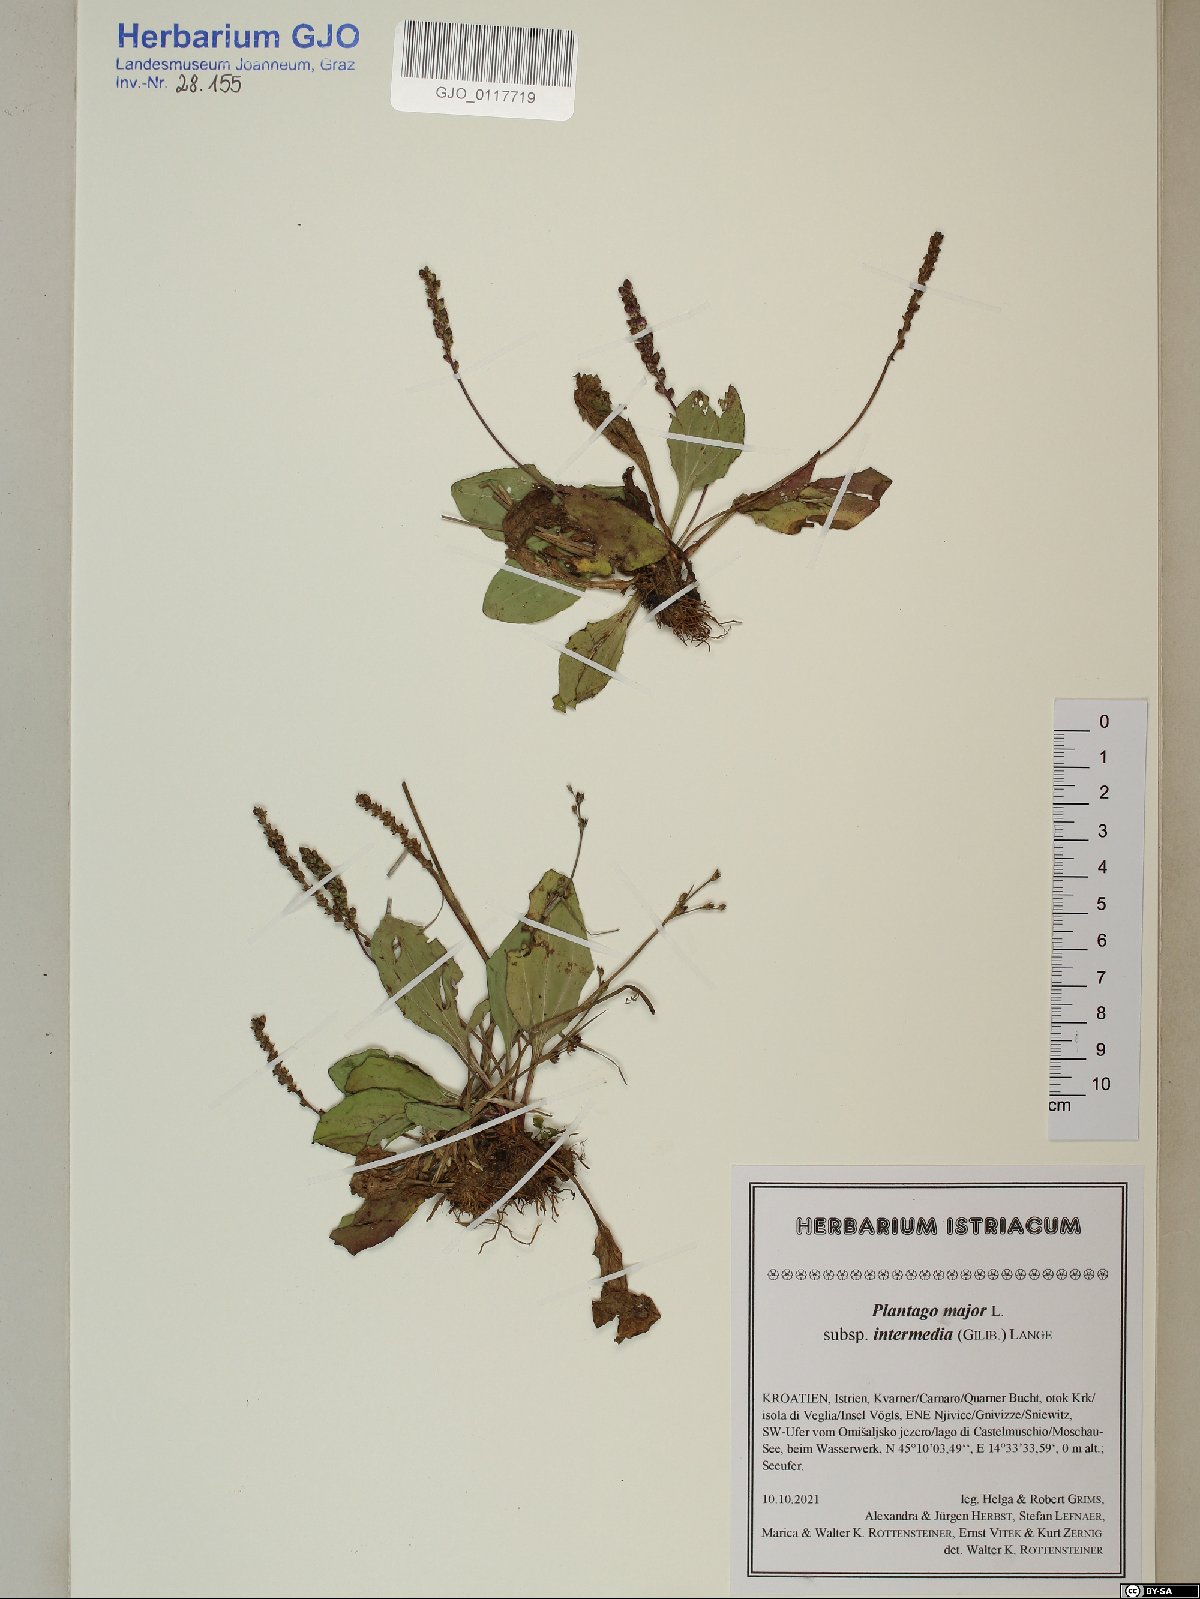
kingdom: Plantae
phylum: Tracheophyta
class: Magnoliopsida
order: Lamiales
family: Plantaginaceae
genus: Plantago
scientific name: Plantago uliginosa
